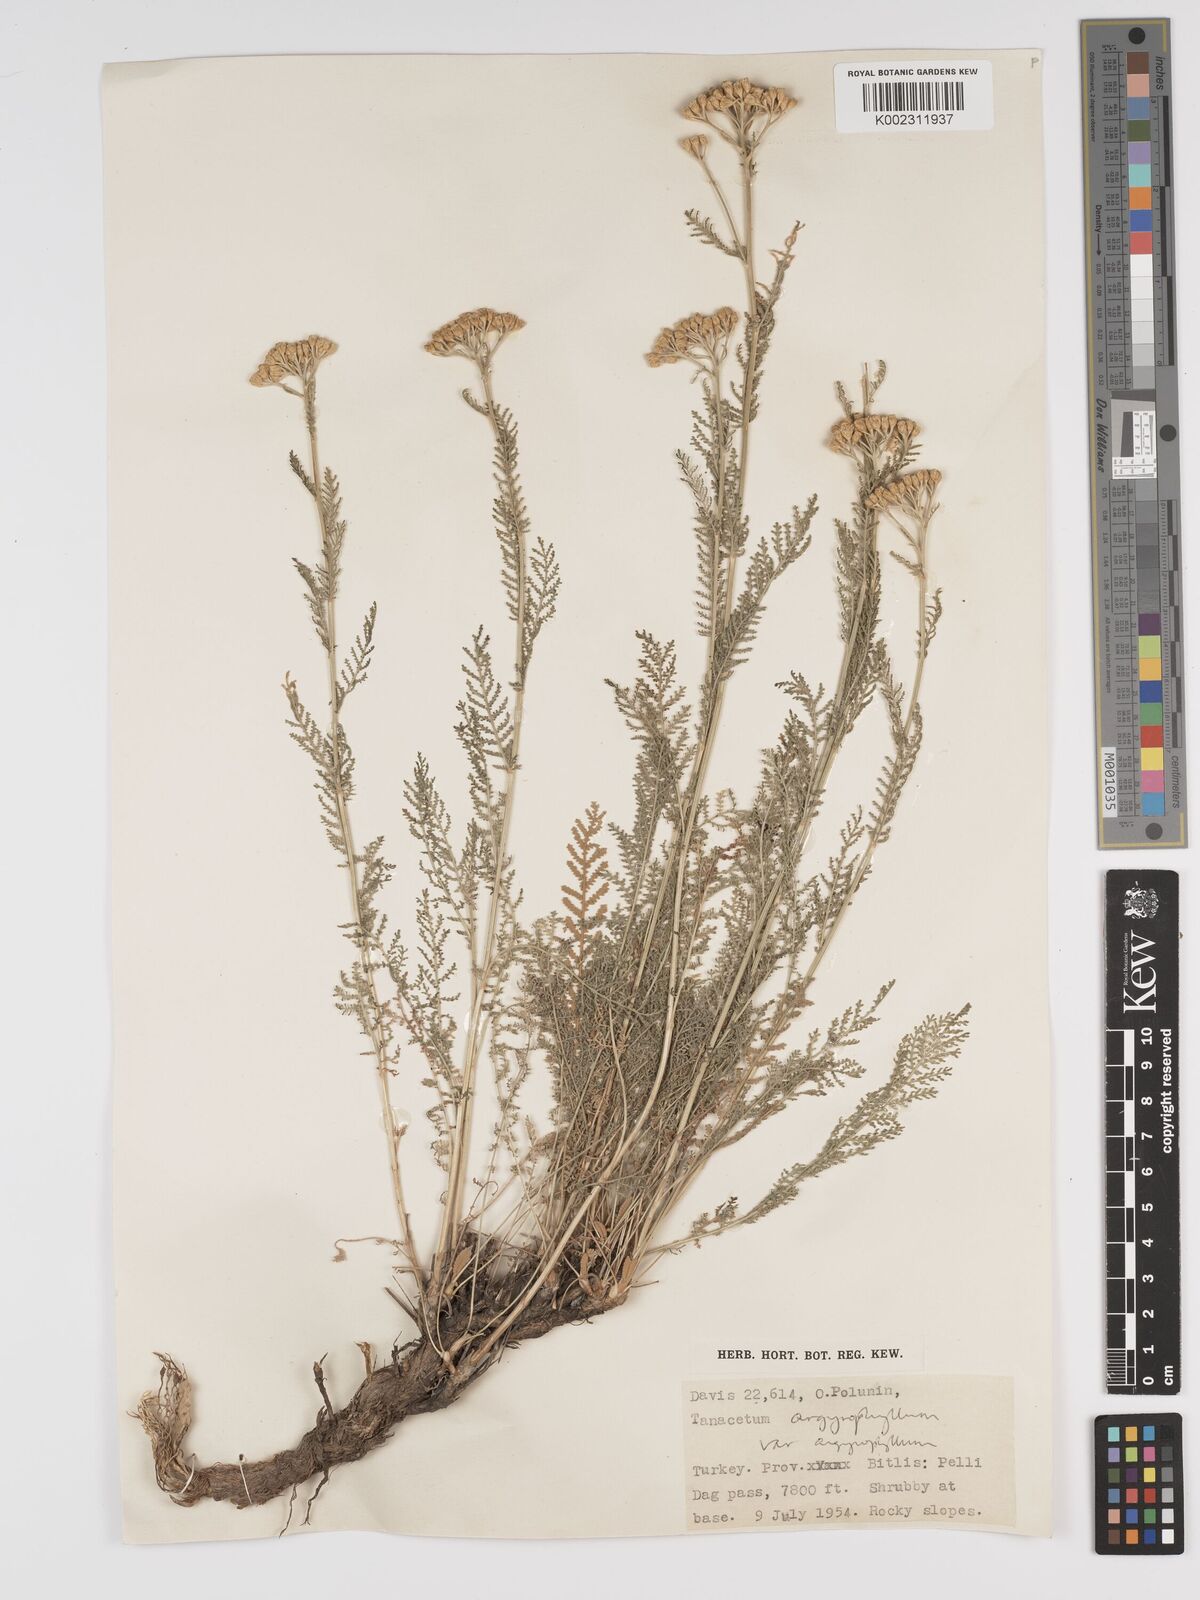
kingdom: Plantae
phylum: Tracheophyta
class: Magnoliopsida
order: Asterales
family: Asteraceae
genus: Tanacetum
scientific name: Tanacetum polycephalum
